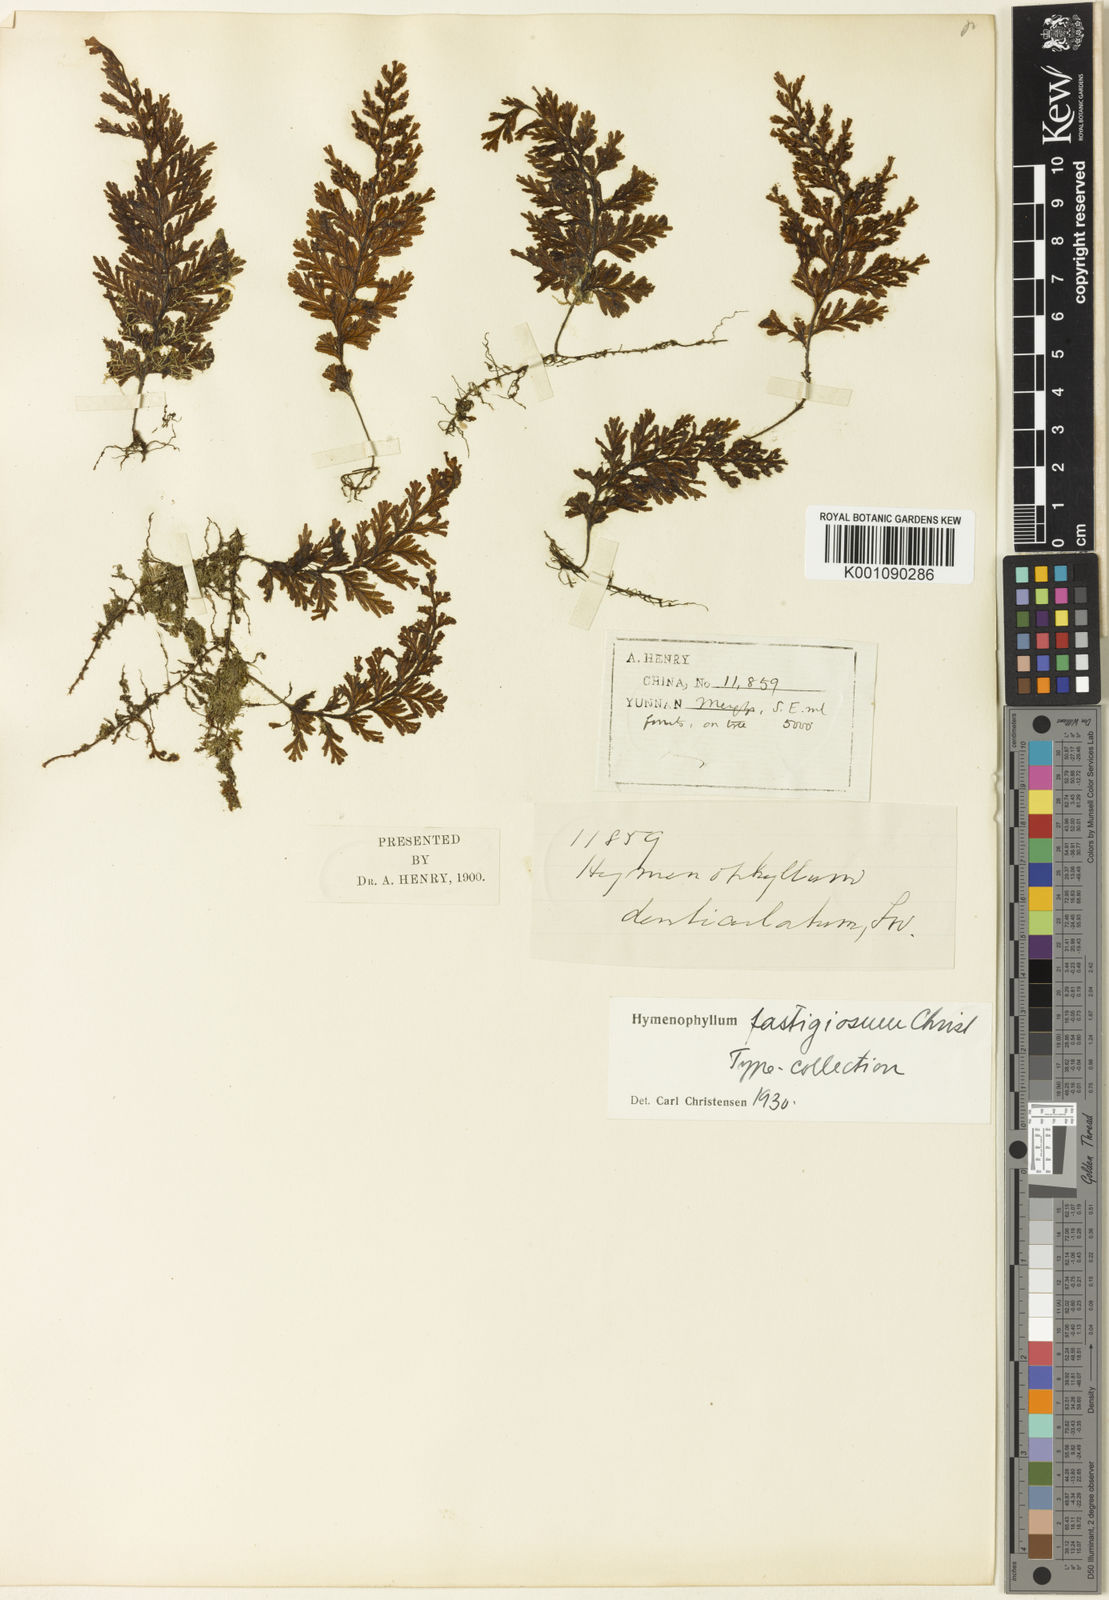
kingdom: Plantae
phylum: Tracheophyta
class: Polypodiopsida
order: Hymenophyllales
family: Hymenophyllaceae
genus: Hymenophyllum
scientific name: Hymenophyllum barbatum
